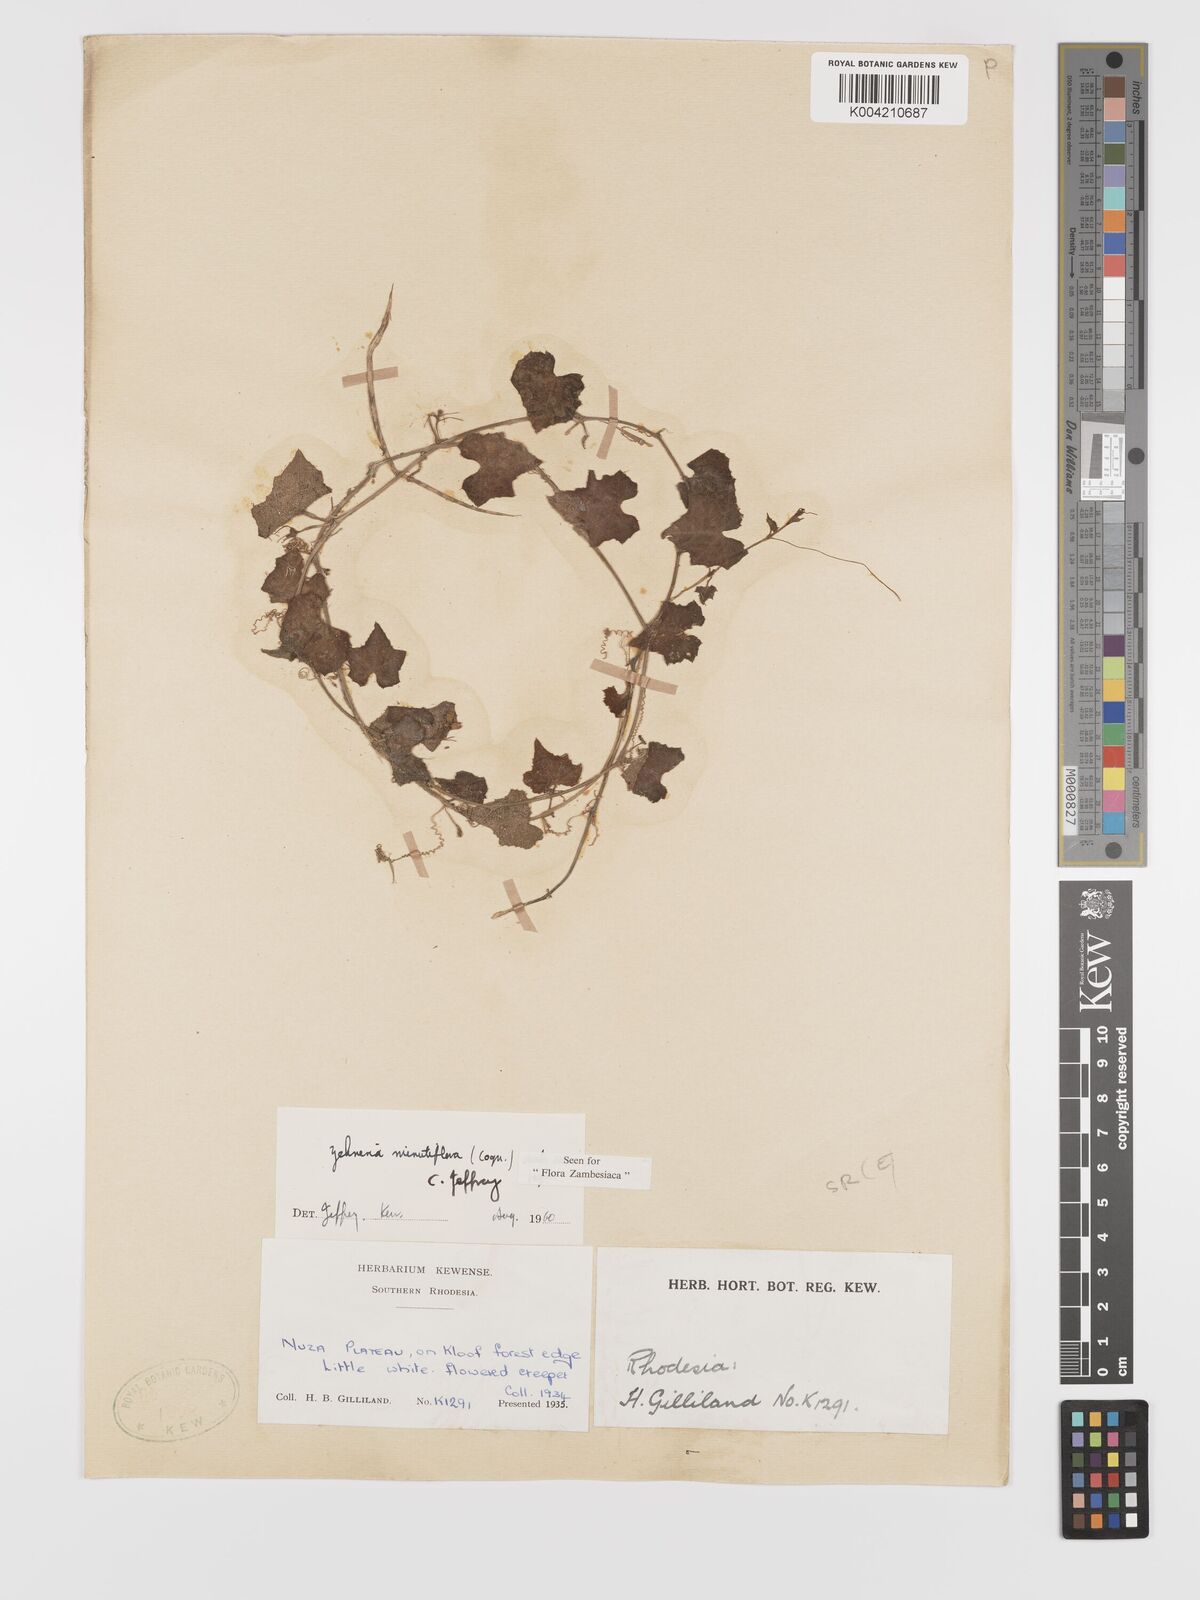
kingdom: Plantae
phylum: Tracheophyta
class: Magnoliopsida
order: Cucurbitales
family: Cucurbitaceae
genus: Zehneria
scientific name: Zehneria minutiflora
